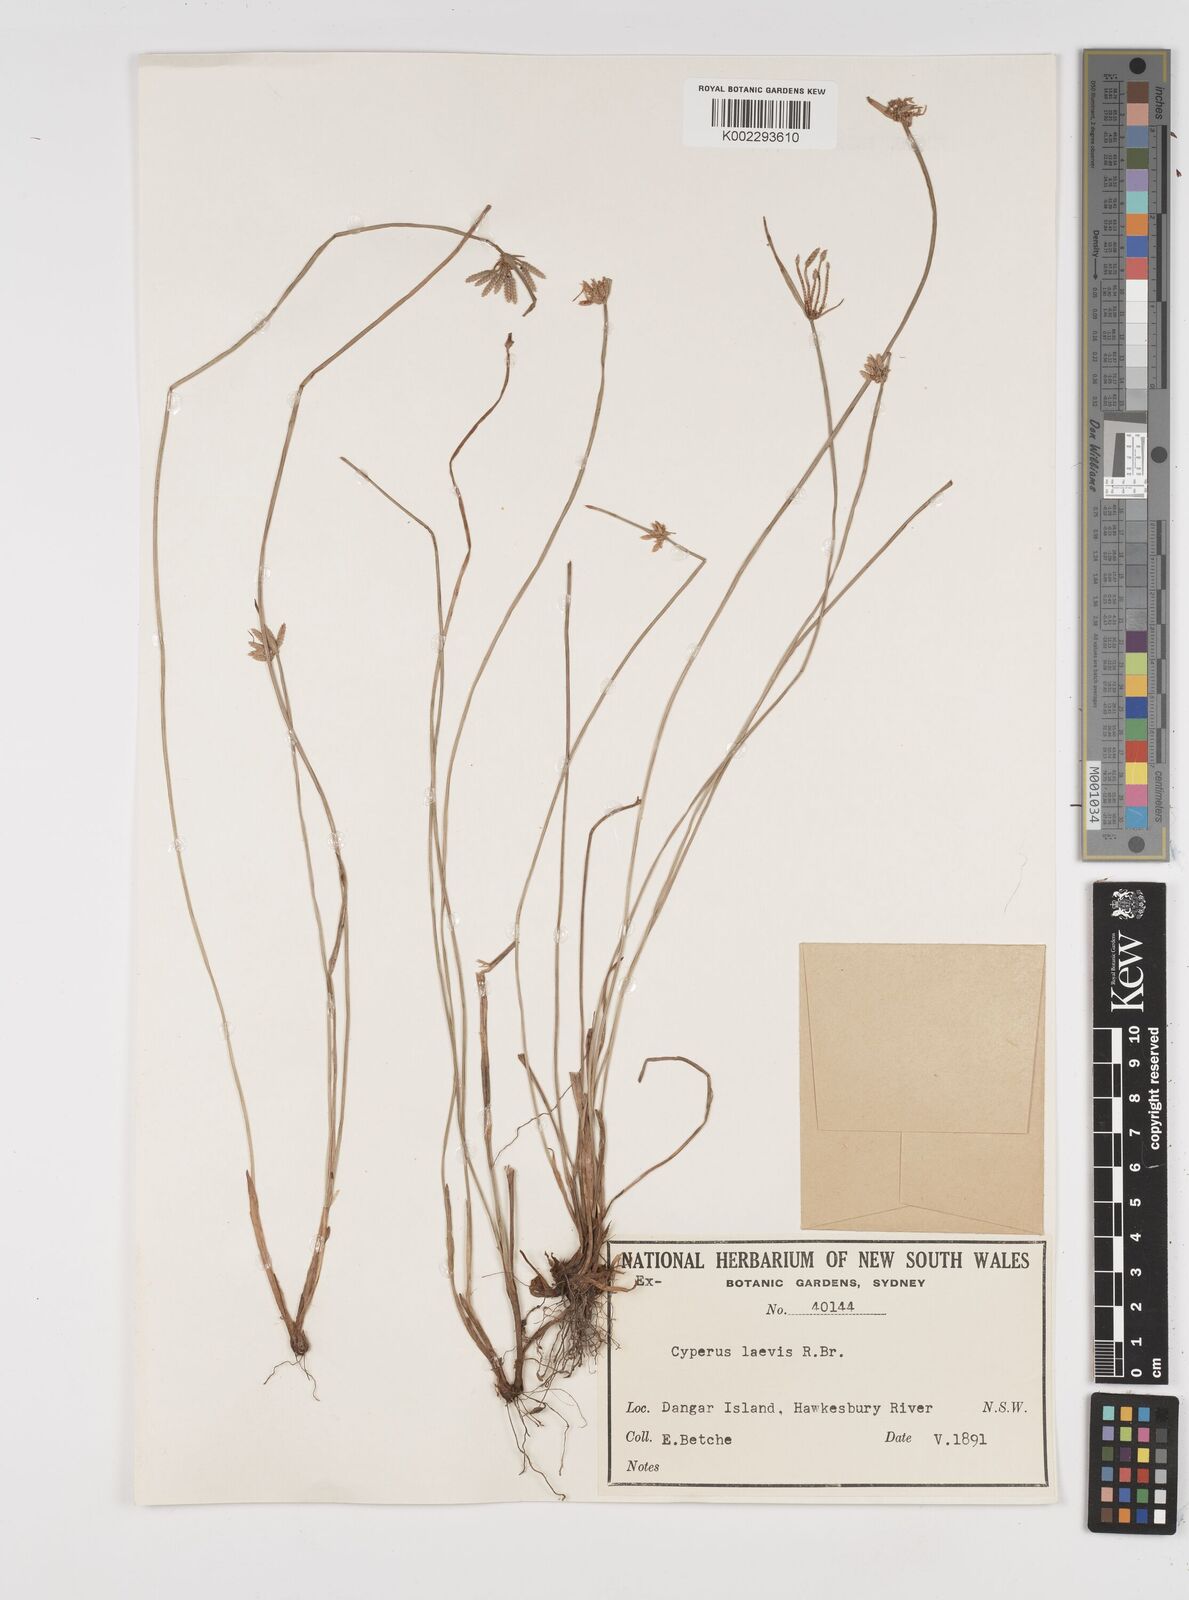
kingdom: Plantae
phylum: Tracheophyta
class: Liliopsida
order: Poales
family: Cyperaceae
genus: Cyperus
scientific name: Cyperus laevis
